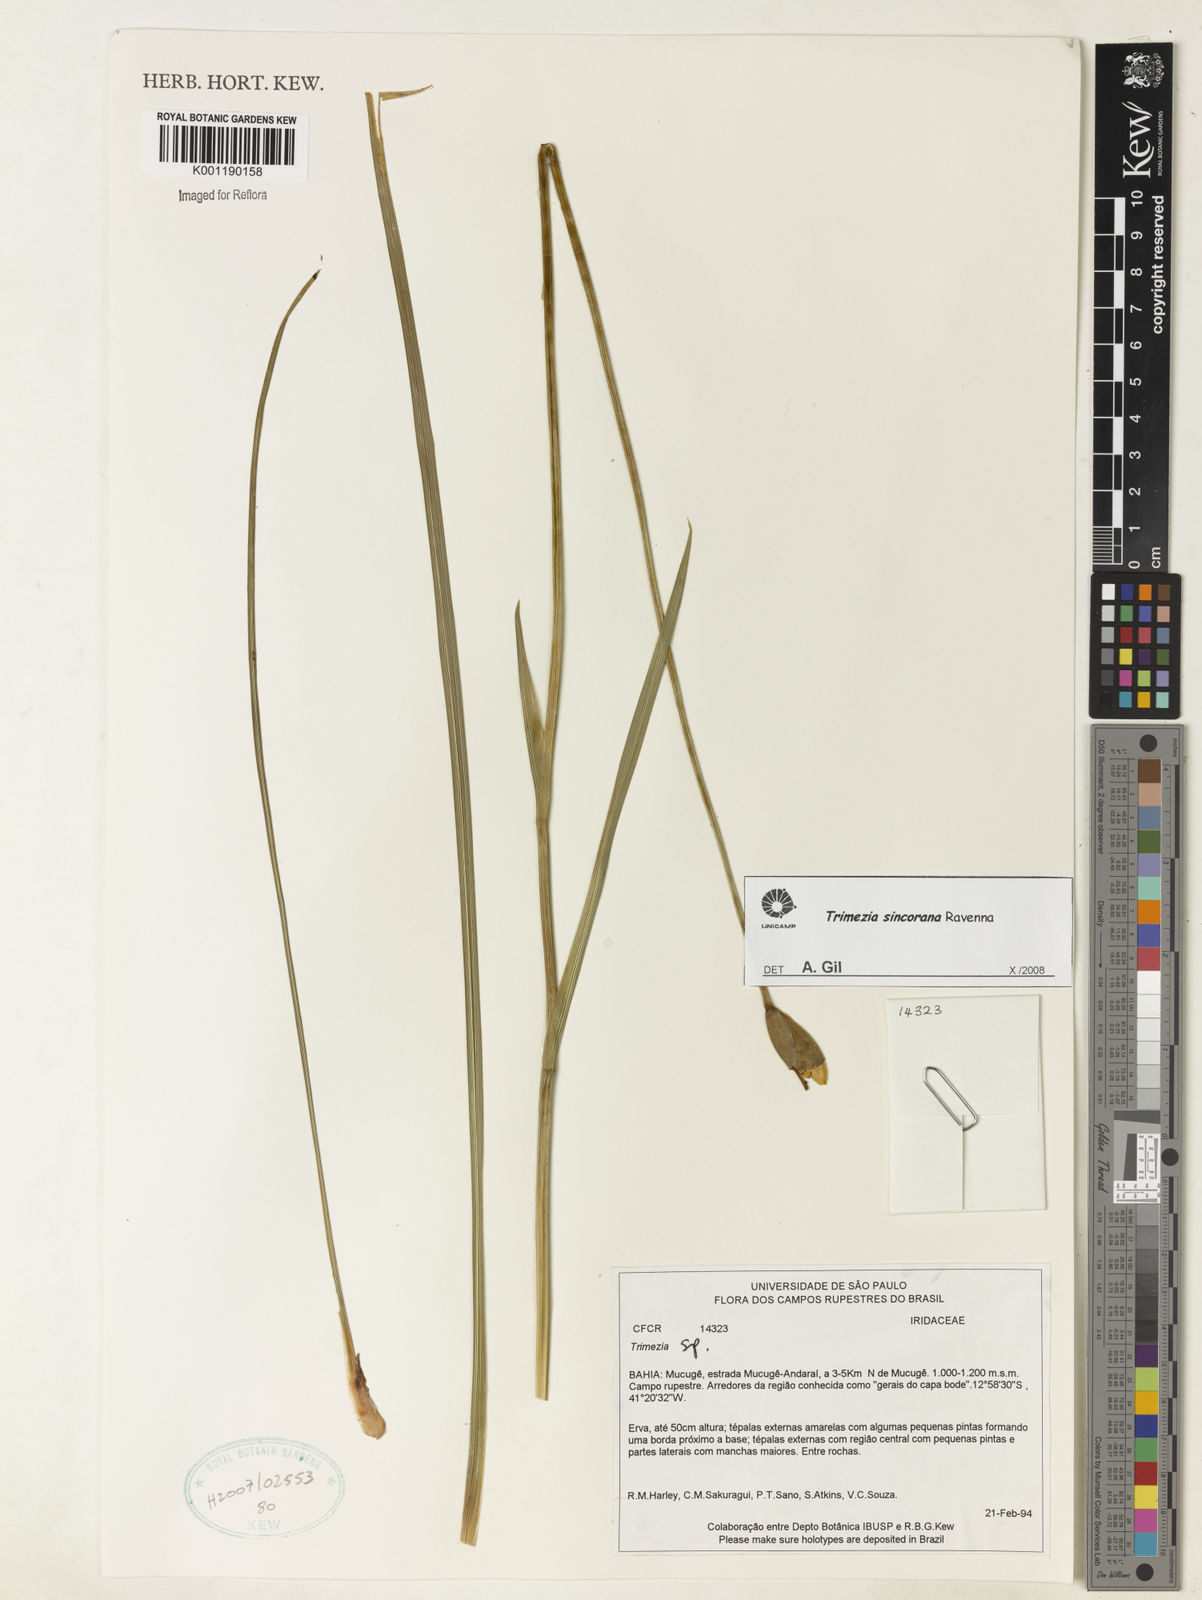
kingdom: Plantae
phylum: Tracheophyta
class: Liliopsida
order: Asparagales
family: Iridaceae
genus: Trimezia
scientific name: Trimezia spathata
